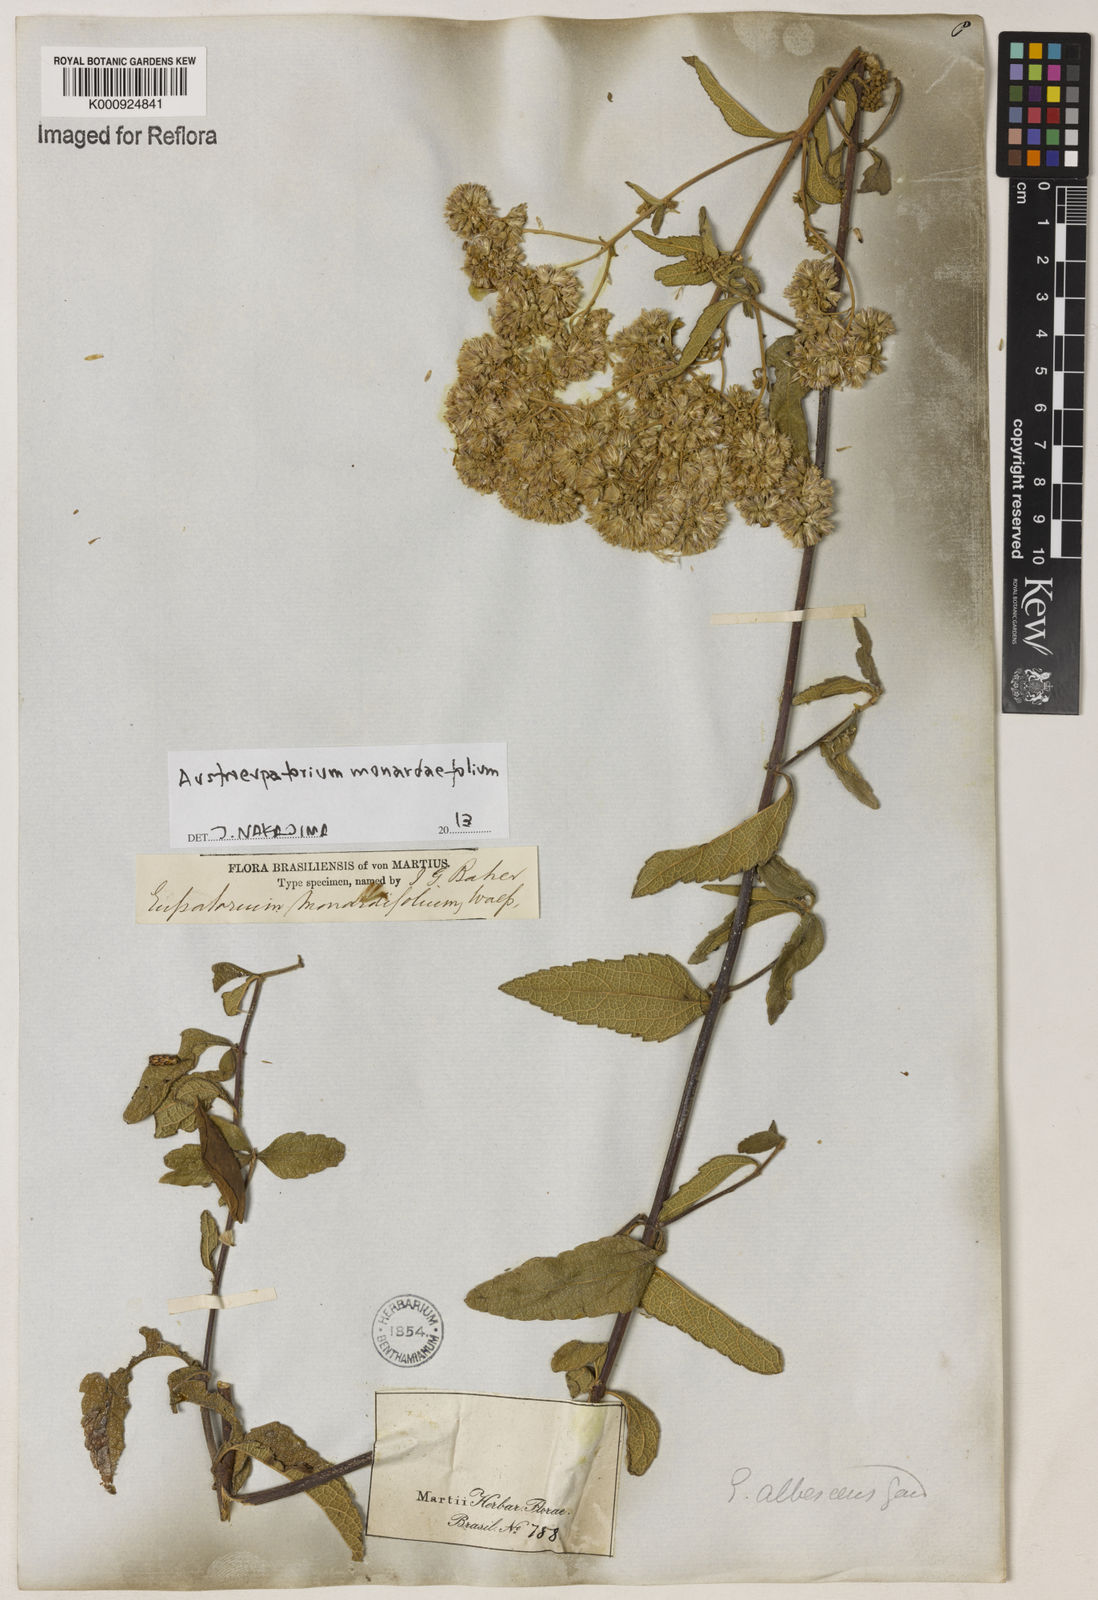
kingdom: Plantae
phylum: Tracheophyta
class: Magnoliopsida
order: Asterales
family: Asteraceae
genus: Austroeupatorium
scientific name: Austroeupatorium
